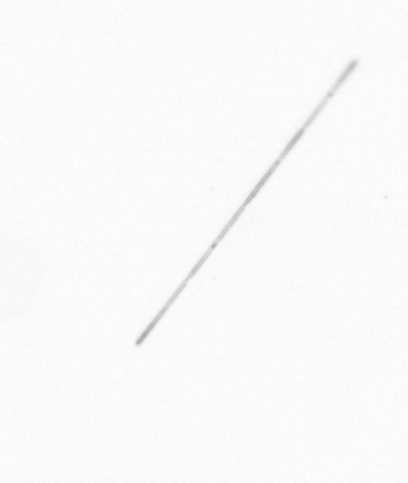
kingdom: Chromista
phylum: Ochrophyta
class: Bacillariophyceae
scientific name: Bacillariophyceae
